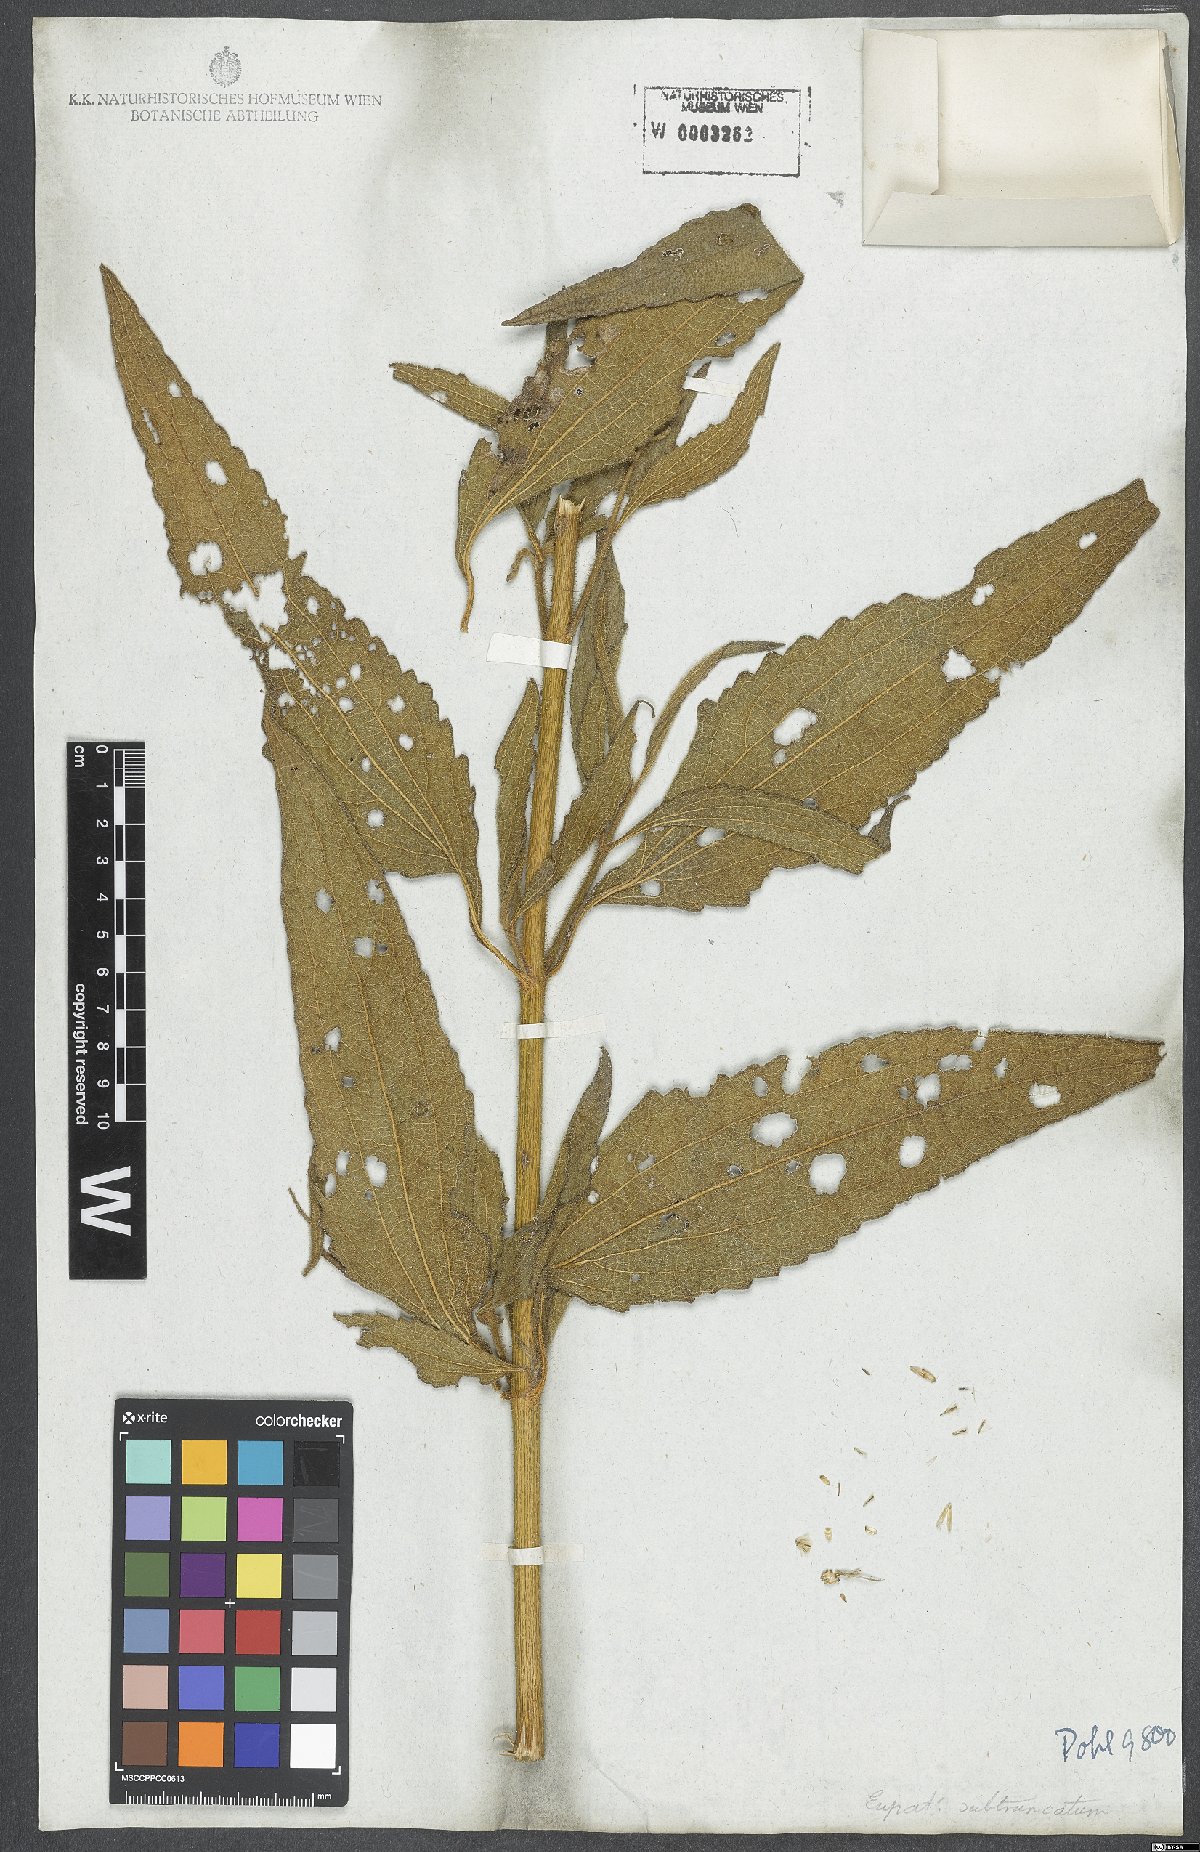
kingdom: Plantae
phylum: Tracheophyta
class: Magnoliopsida
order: Asterales
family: Asteraceae
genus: Eupatorium
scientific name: Eupatorium subtruncatum
